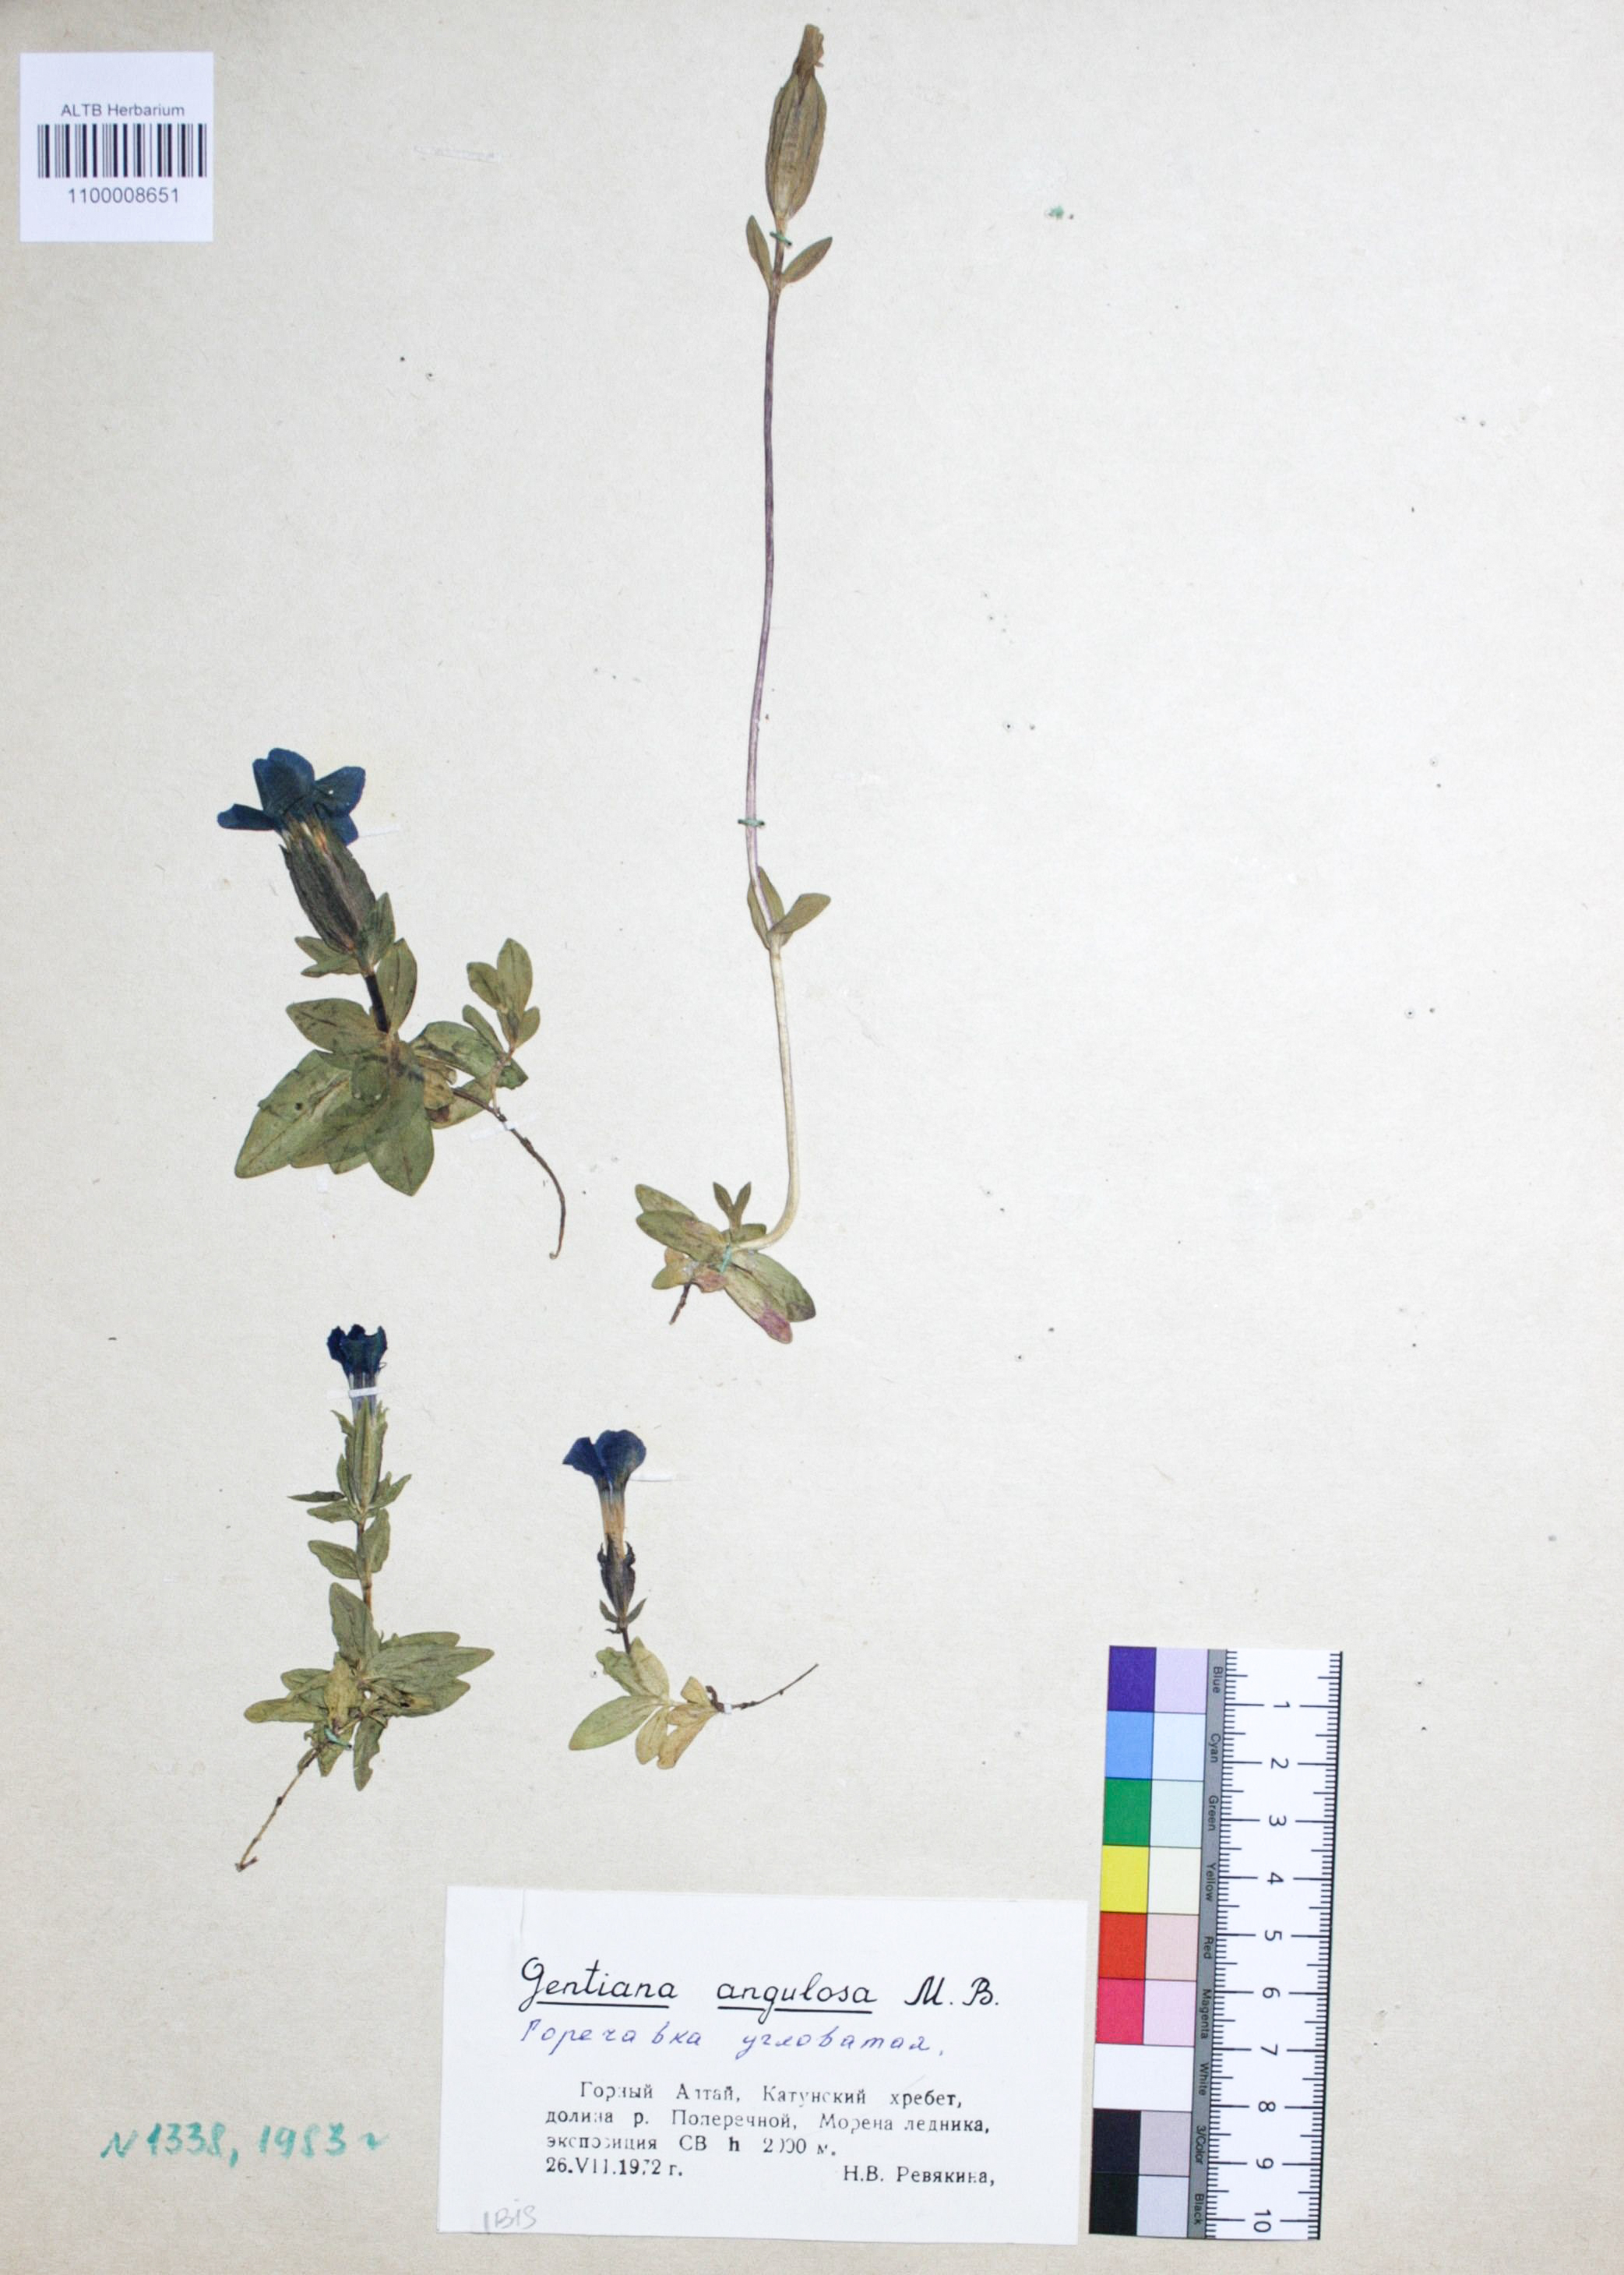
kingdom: Plantae
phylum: Tracheophyta
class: Magnoliopsida
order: Gentianales
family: Gentianaceae
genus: Gentiana
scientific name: Gentiana verna
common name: Spring gentian
